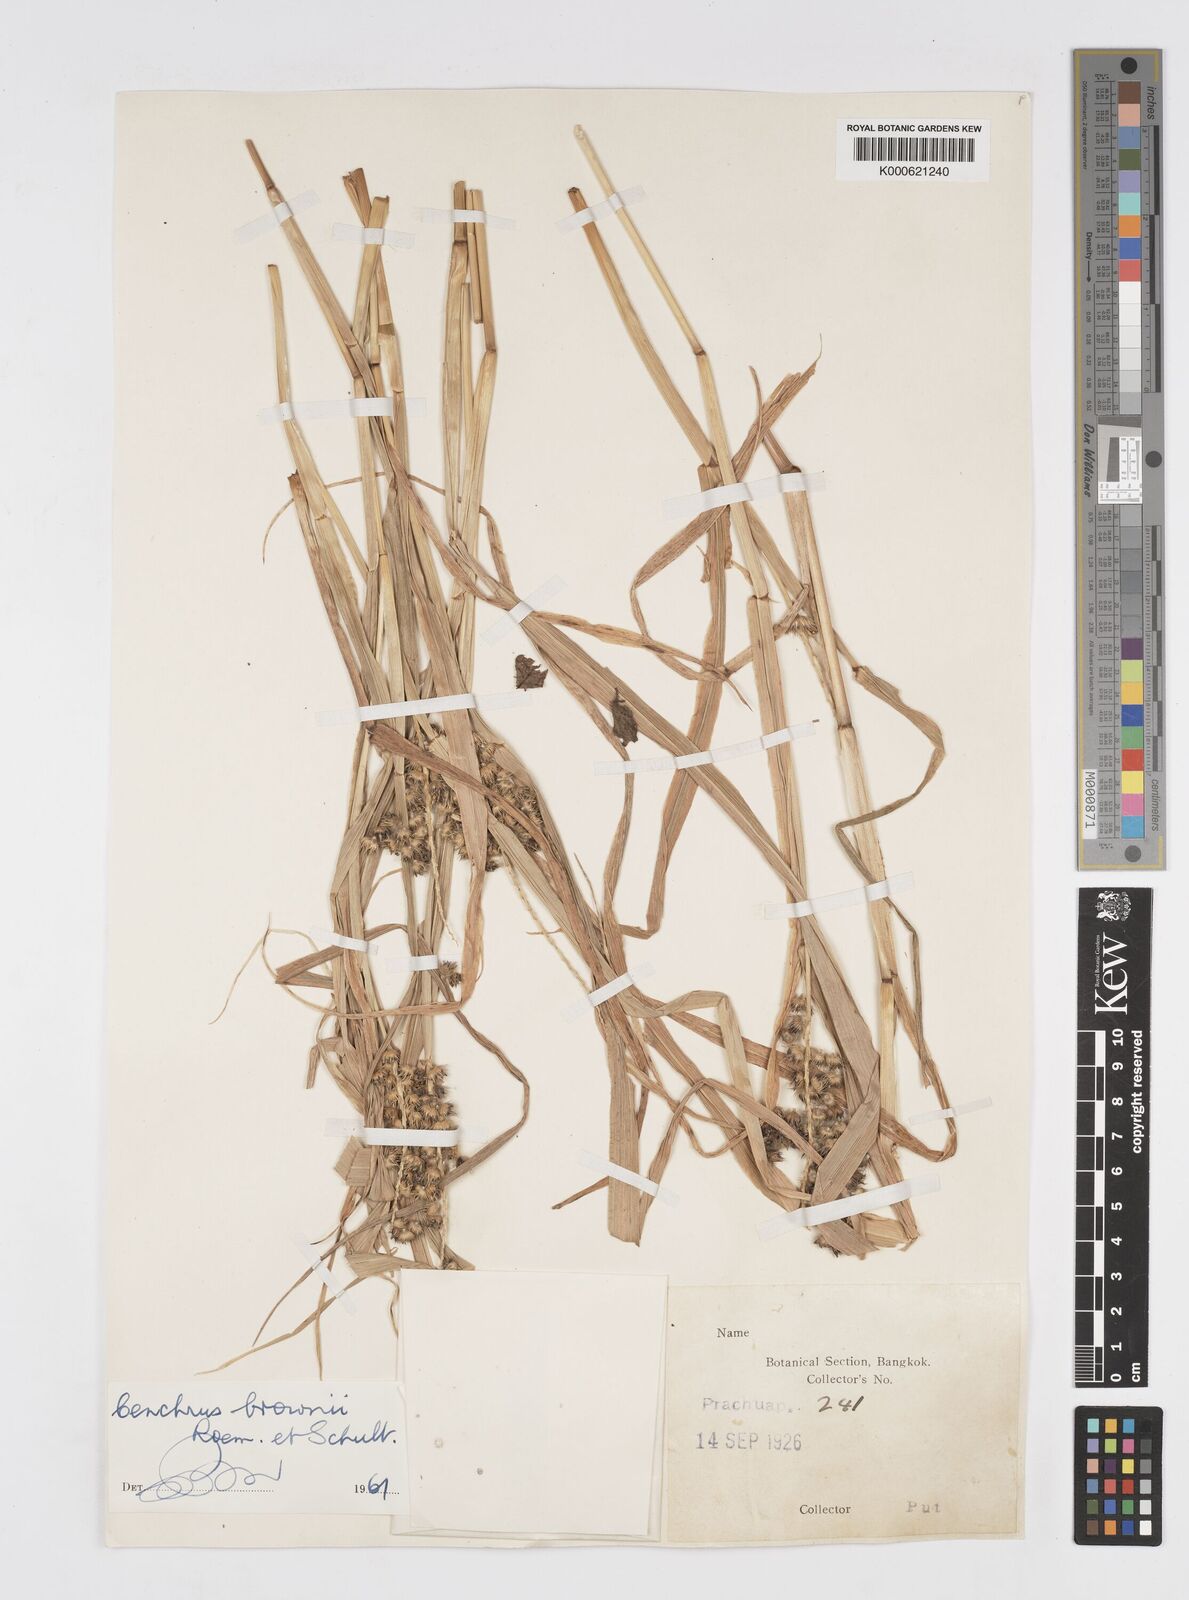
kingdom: Plantae
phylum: Tracheophyta
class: Liliopsida
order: Poales
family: Poaceae
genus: Cenchrus
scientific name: Cenchrus brownii
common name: Slim-bristle sandbur
